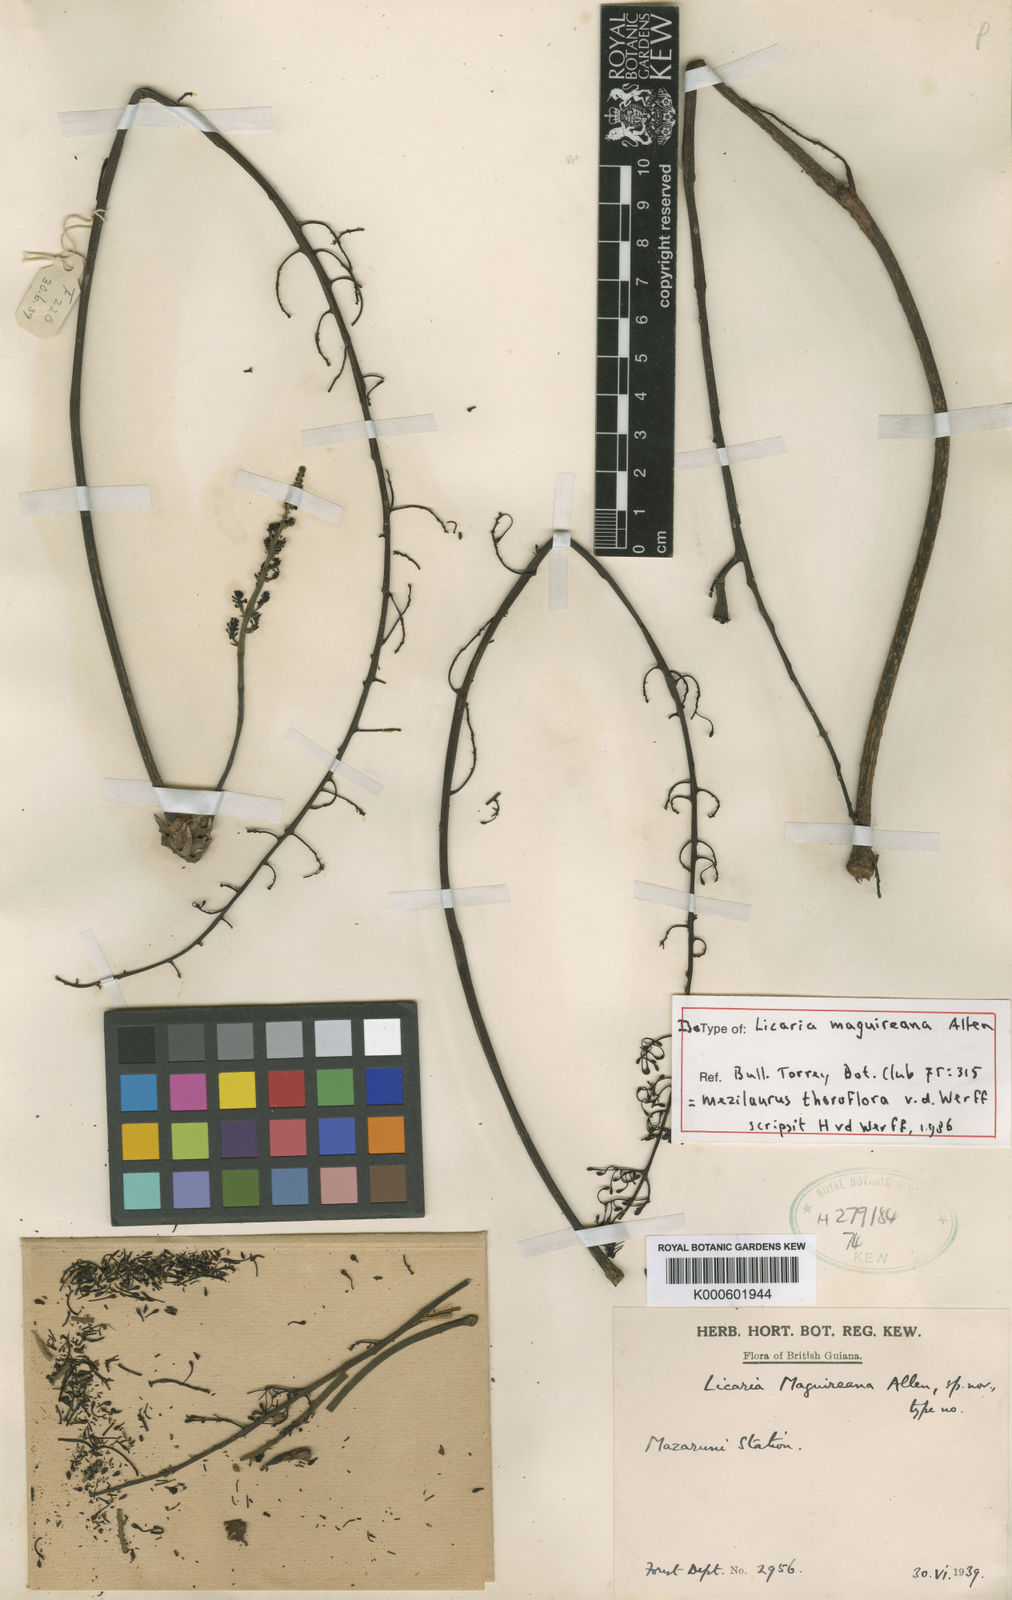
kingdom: Plantae
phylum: Tracheophyta
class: Magnoliopsida
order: Laurales
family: Lauraceae
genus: Mezilaurus
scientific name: Mezilaurus thoroflora
